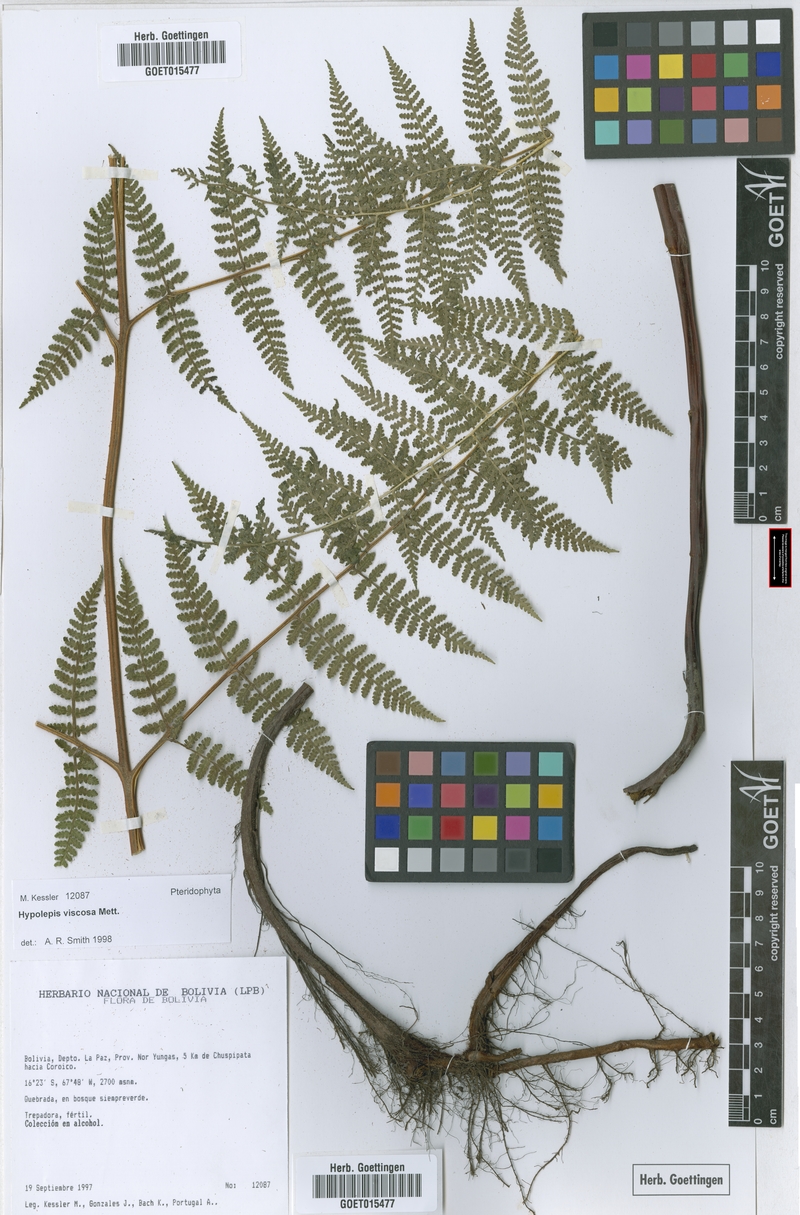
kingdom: Plantae
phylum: Tracheophyta
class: Polypodiopsida
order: Polypodiales
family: Dennstaedtiaceae
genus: Hypolepis
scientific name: Hypolepis periculosa
